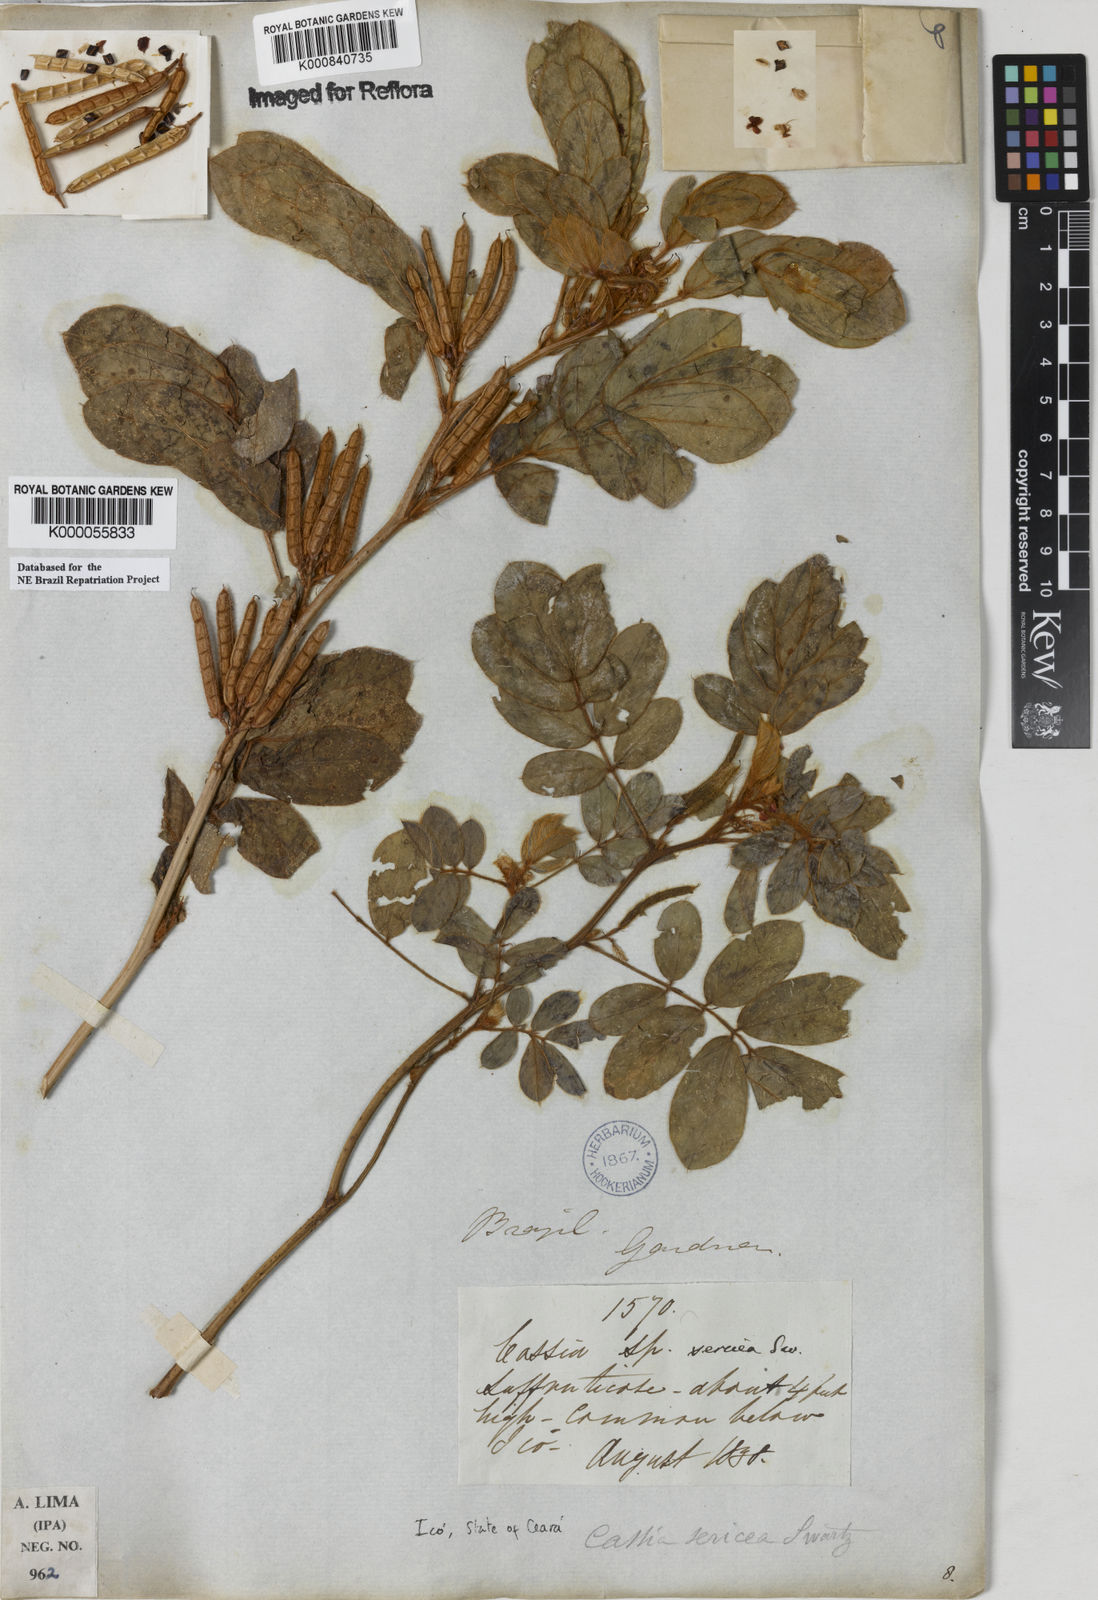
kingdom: Plantae
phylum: Tracheophyta
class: Magnoliopsida
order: Fabales
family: Fabaceae
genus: Senna
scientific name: Senna uniflora
